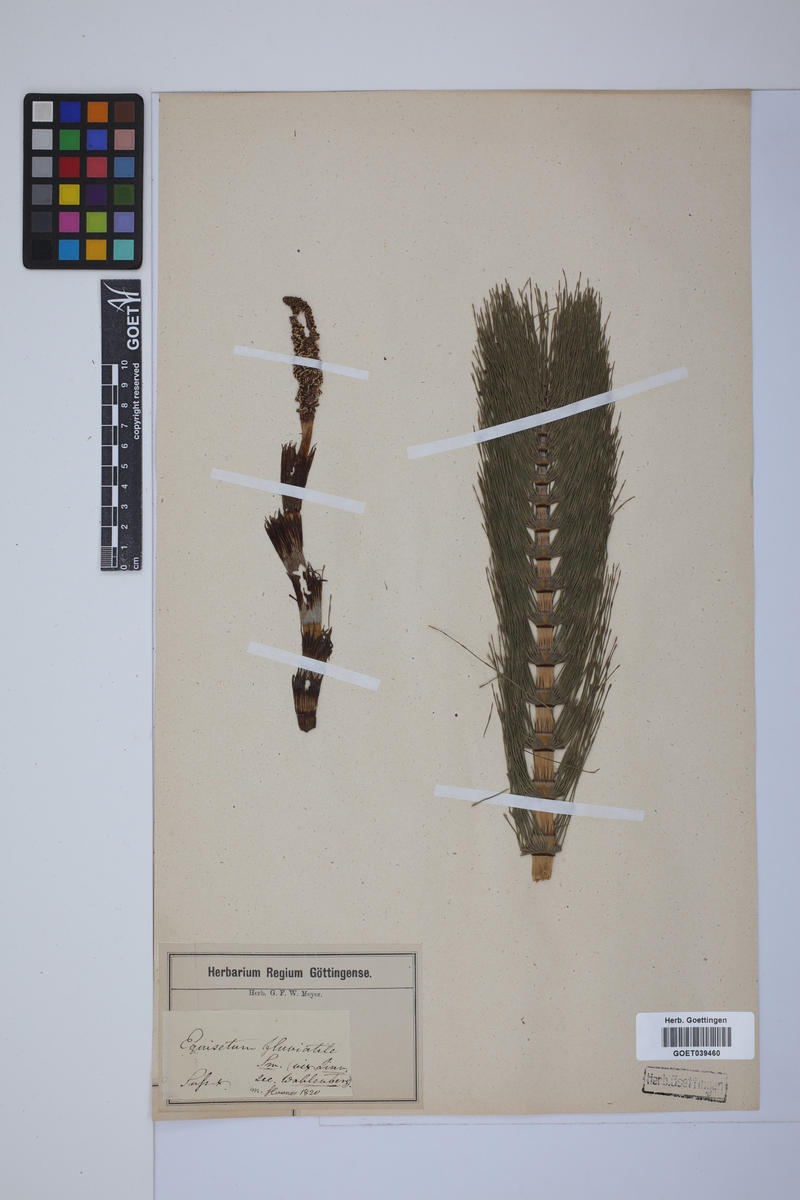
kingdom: Plantae
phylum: Tracheophyta
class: Polypodiopsida
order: Equisetales
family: Equisetaceae
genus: Equisetum
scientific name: Equisetum telmateia
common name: Great horsetail
